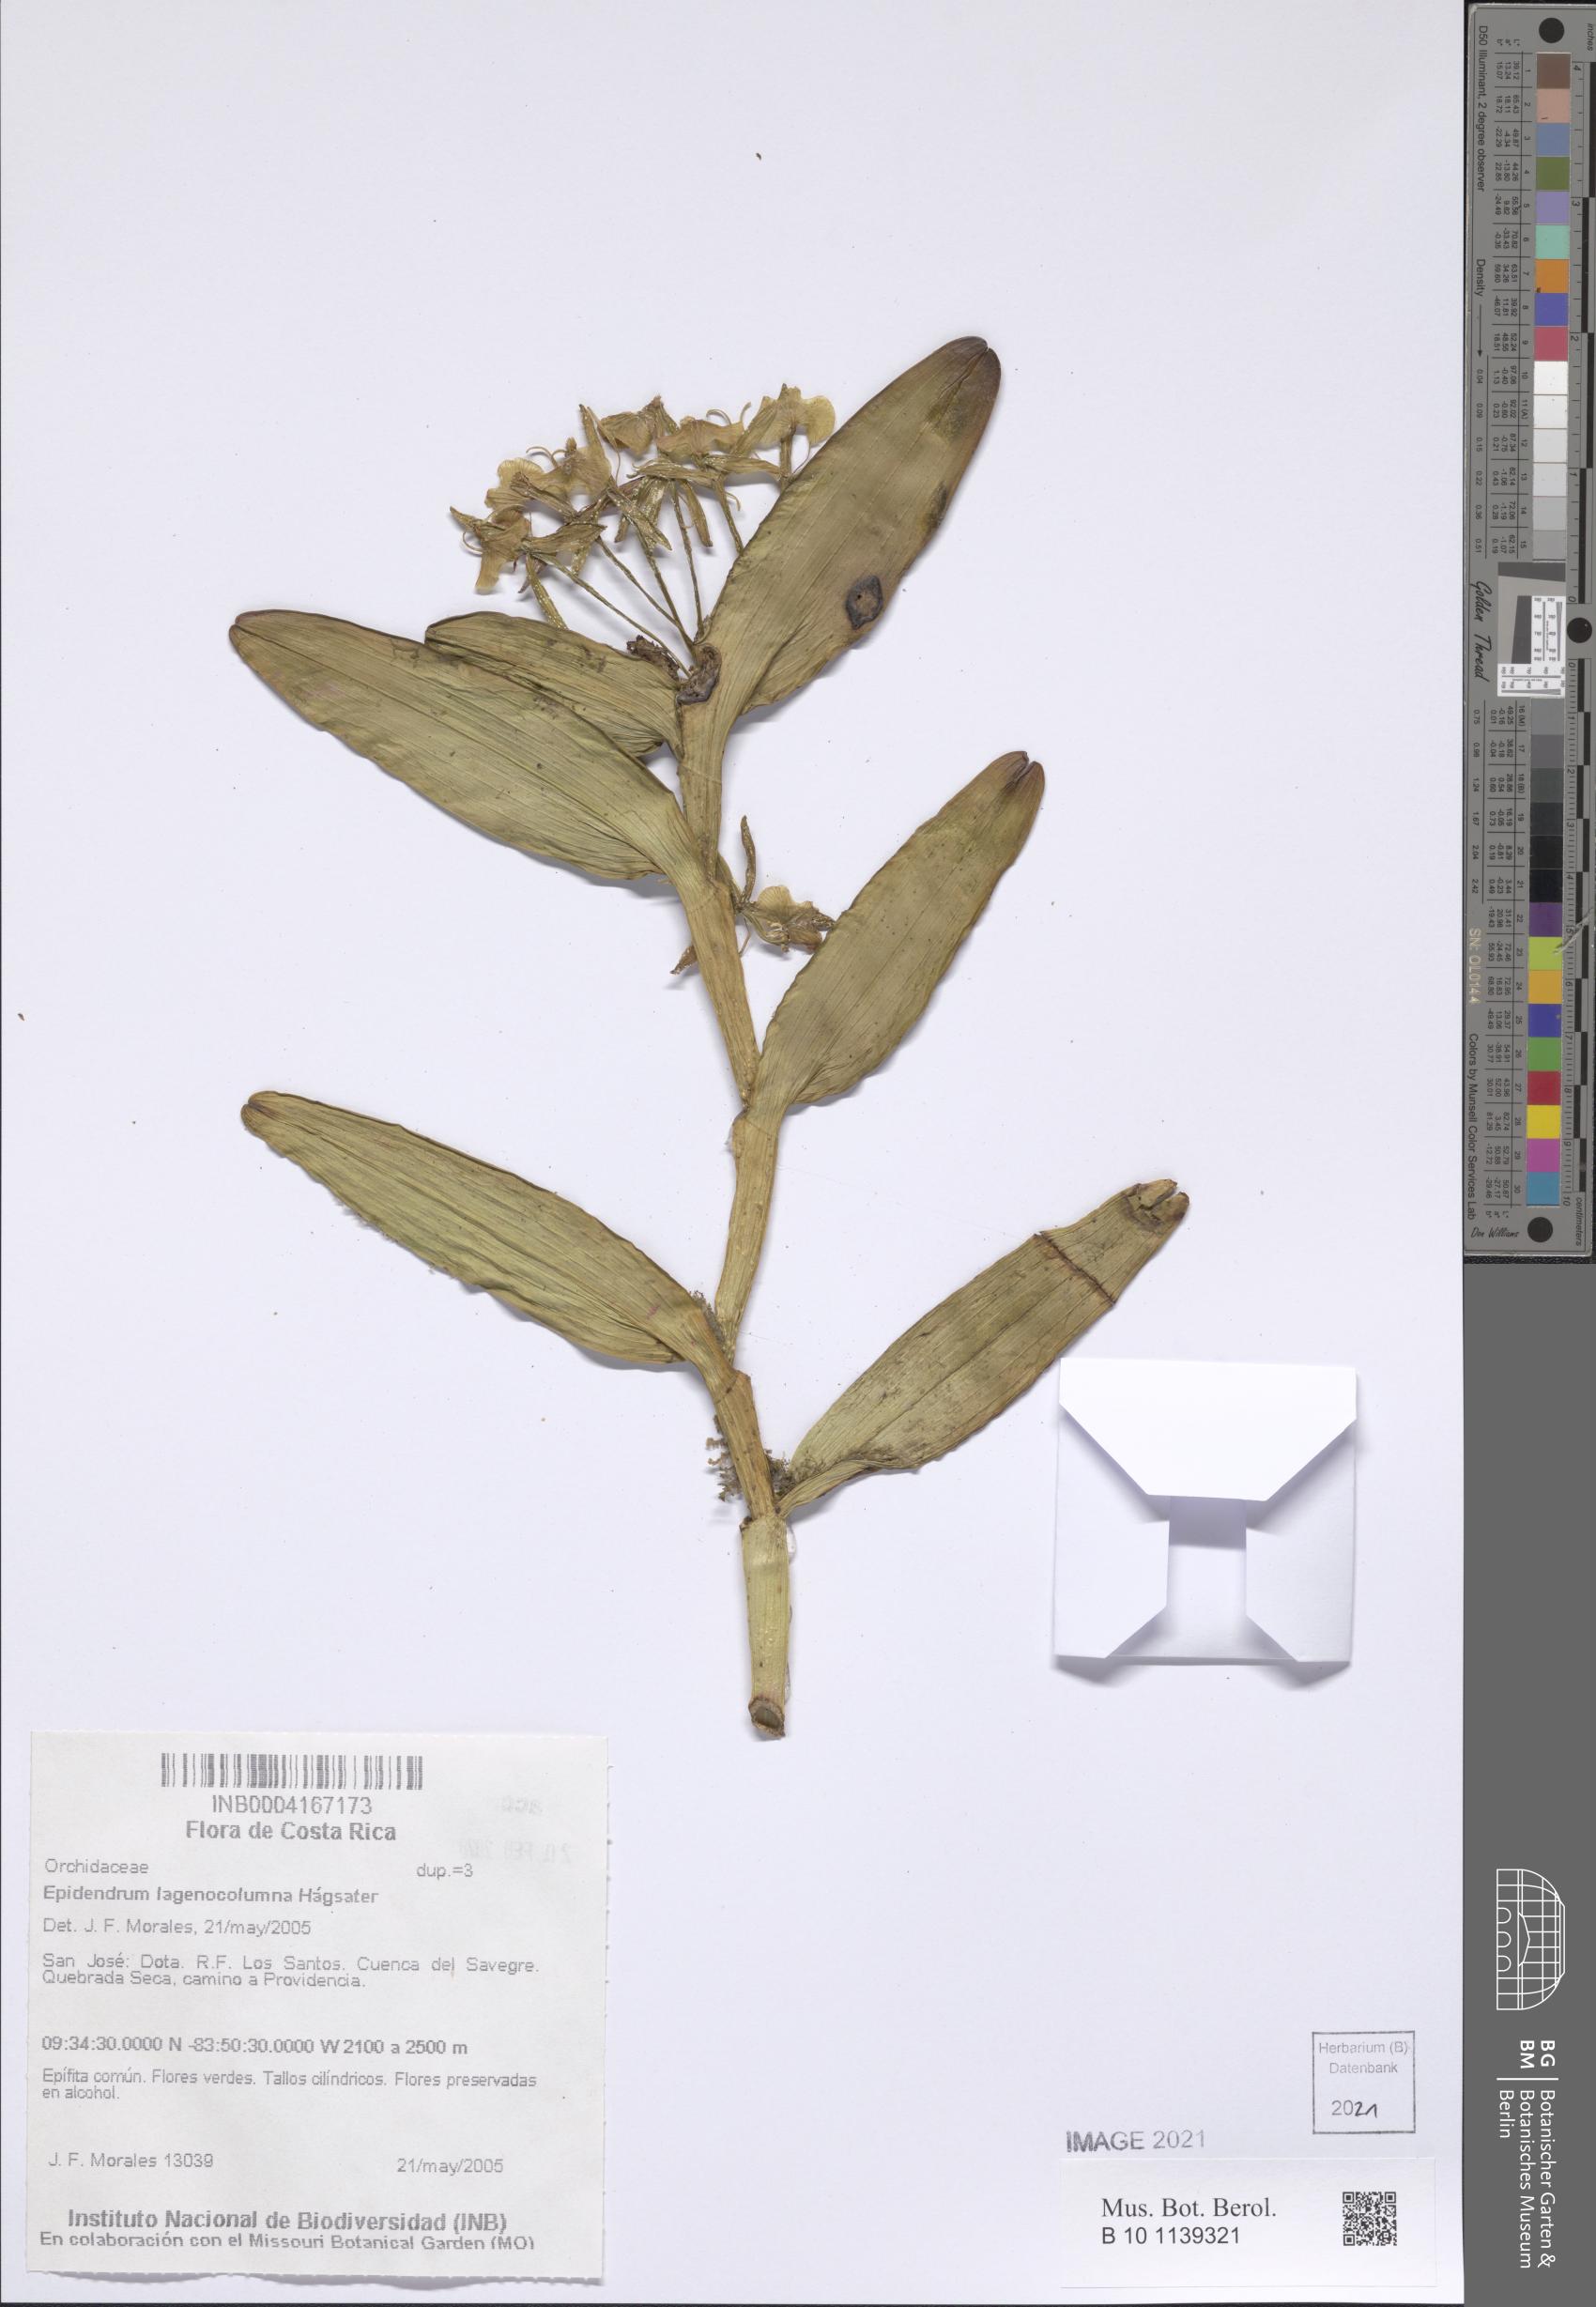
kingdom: Plantae
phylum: Tracheophyta
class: Liliopsida
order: Asparagales
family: Orchidaceae
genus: Epidendrum
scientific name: Epidendrum lagenocolumna
